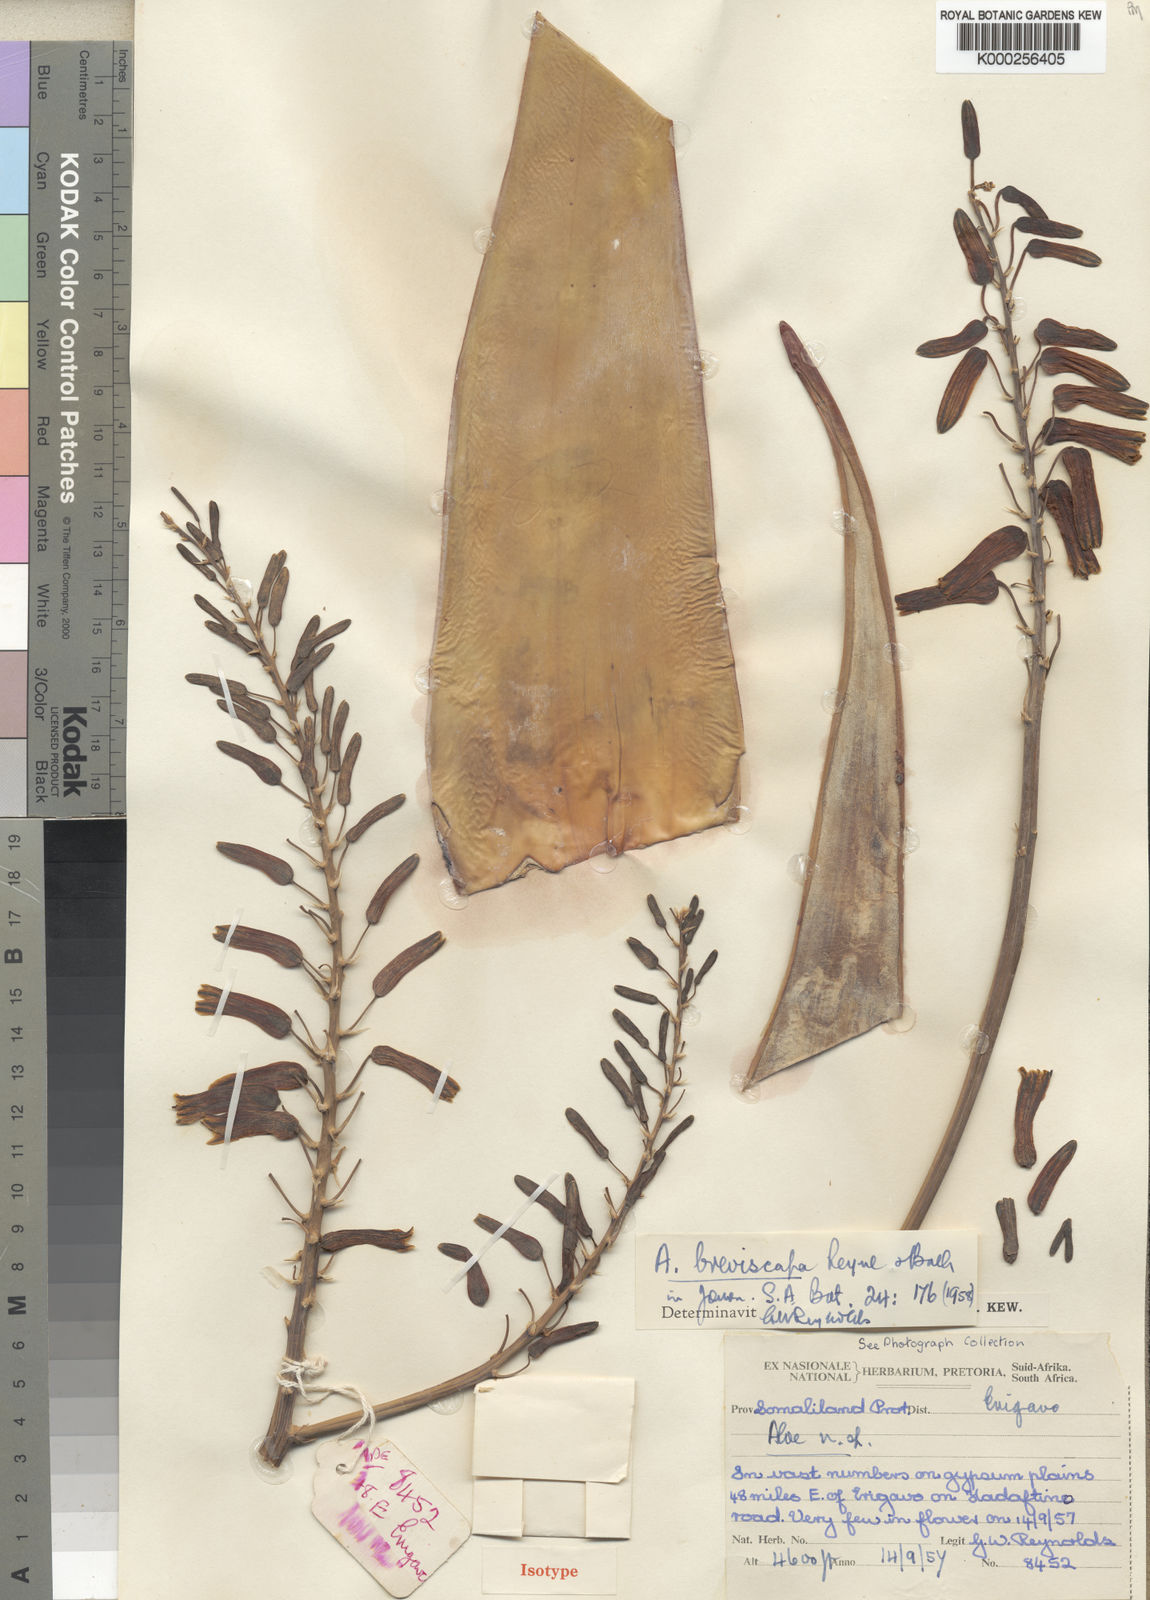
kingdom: Plantae
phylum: Tracheophyta
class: Liliopsida
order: Asparagales
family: Asphodelaceae
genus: Aloe
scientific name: Aloe breviscapa
